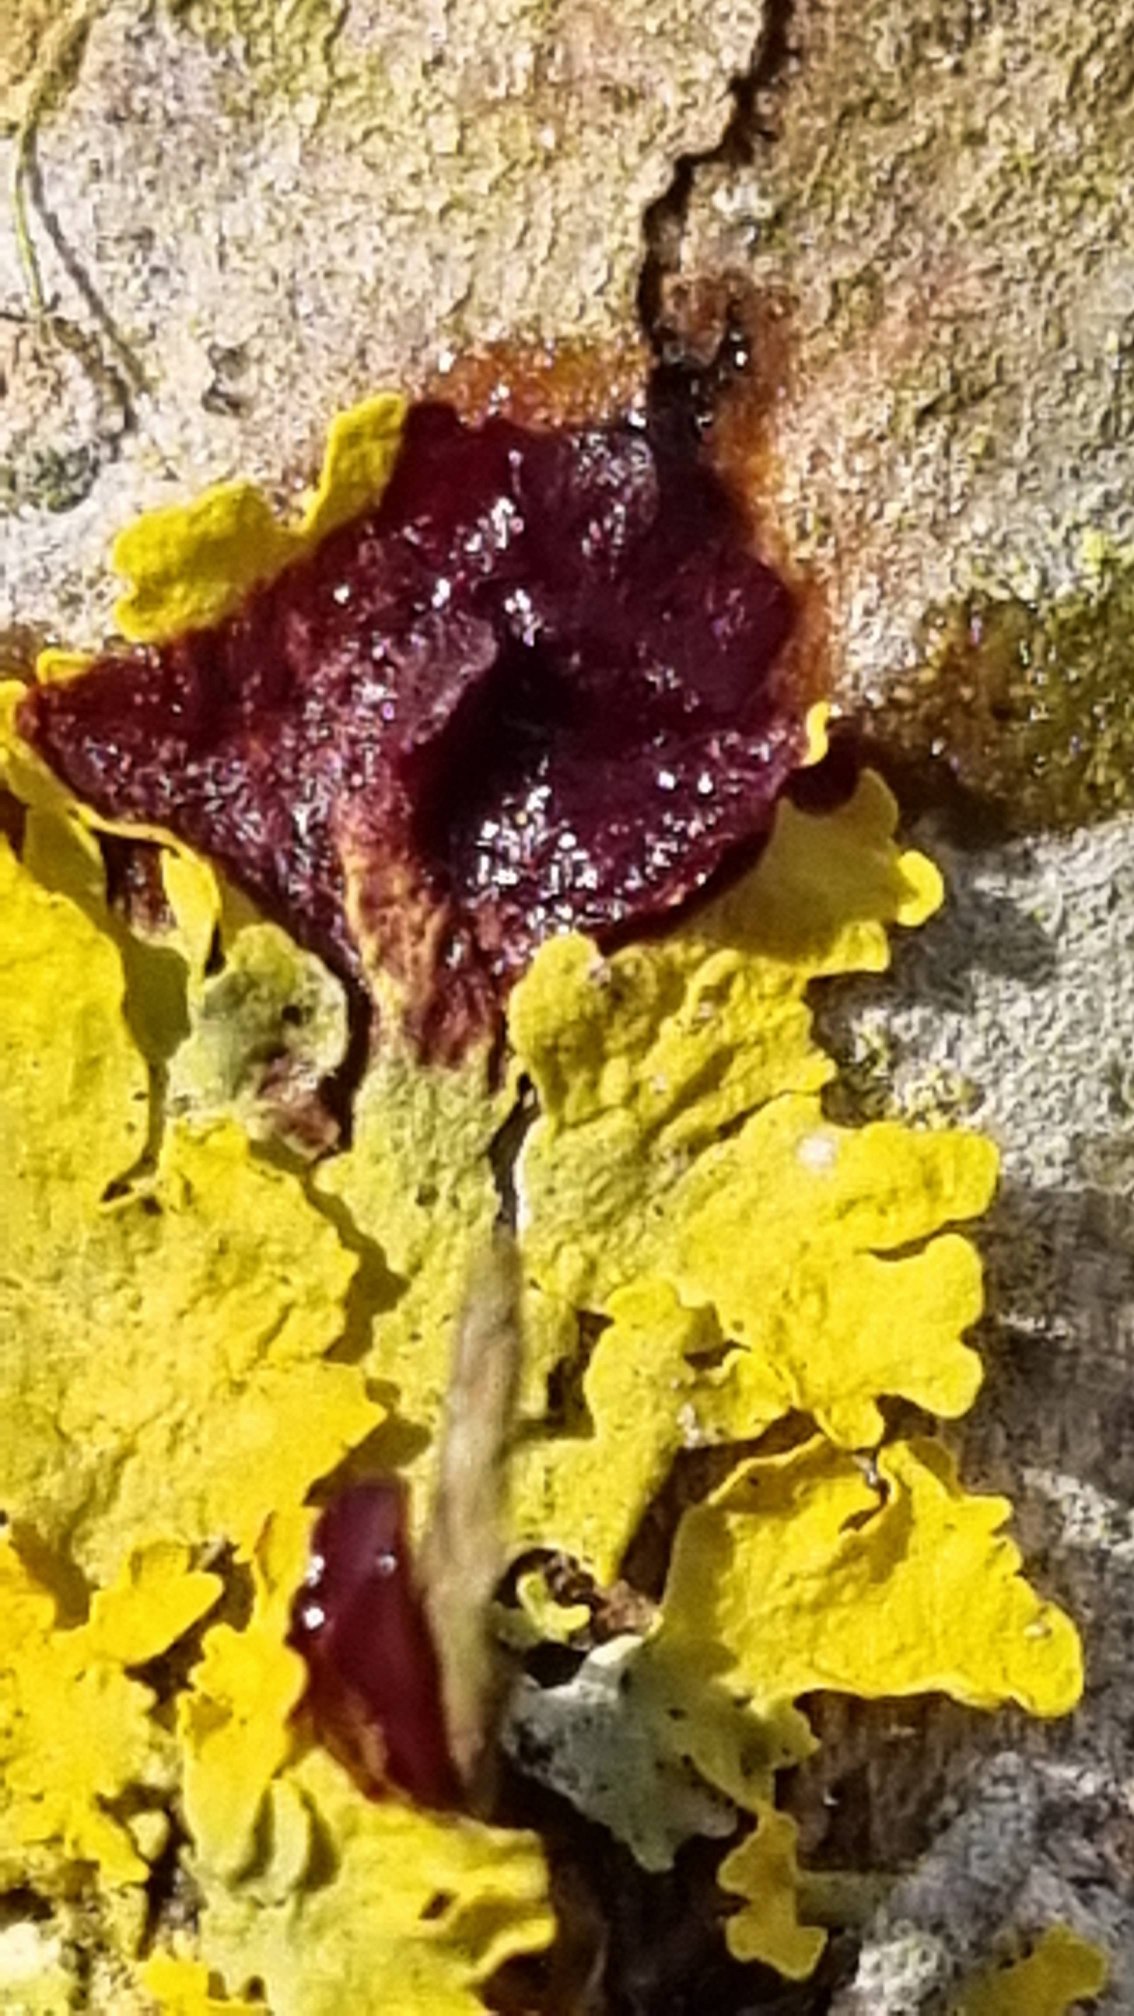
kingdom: Fungi
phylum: Ascomycota
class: Lecanoromycetes
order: Teloschistales
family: Teloschistaceae
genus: Xanthoria
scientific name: Xanthoria parietina
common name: Almindelig væggelav
